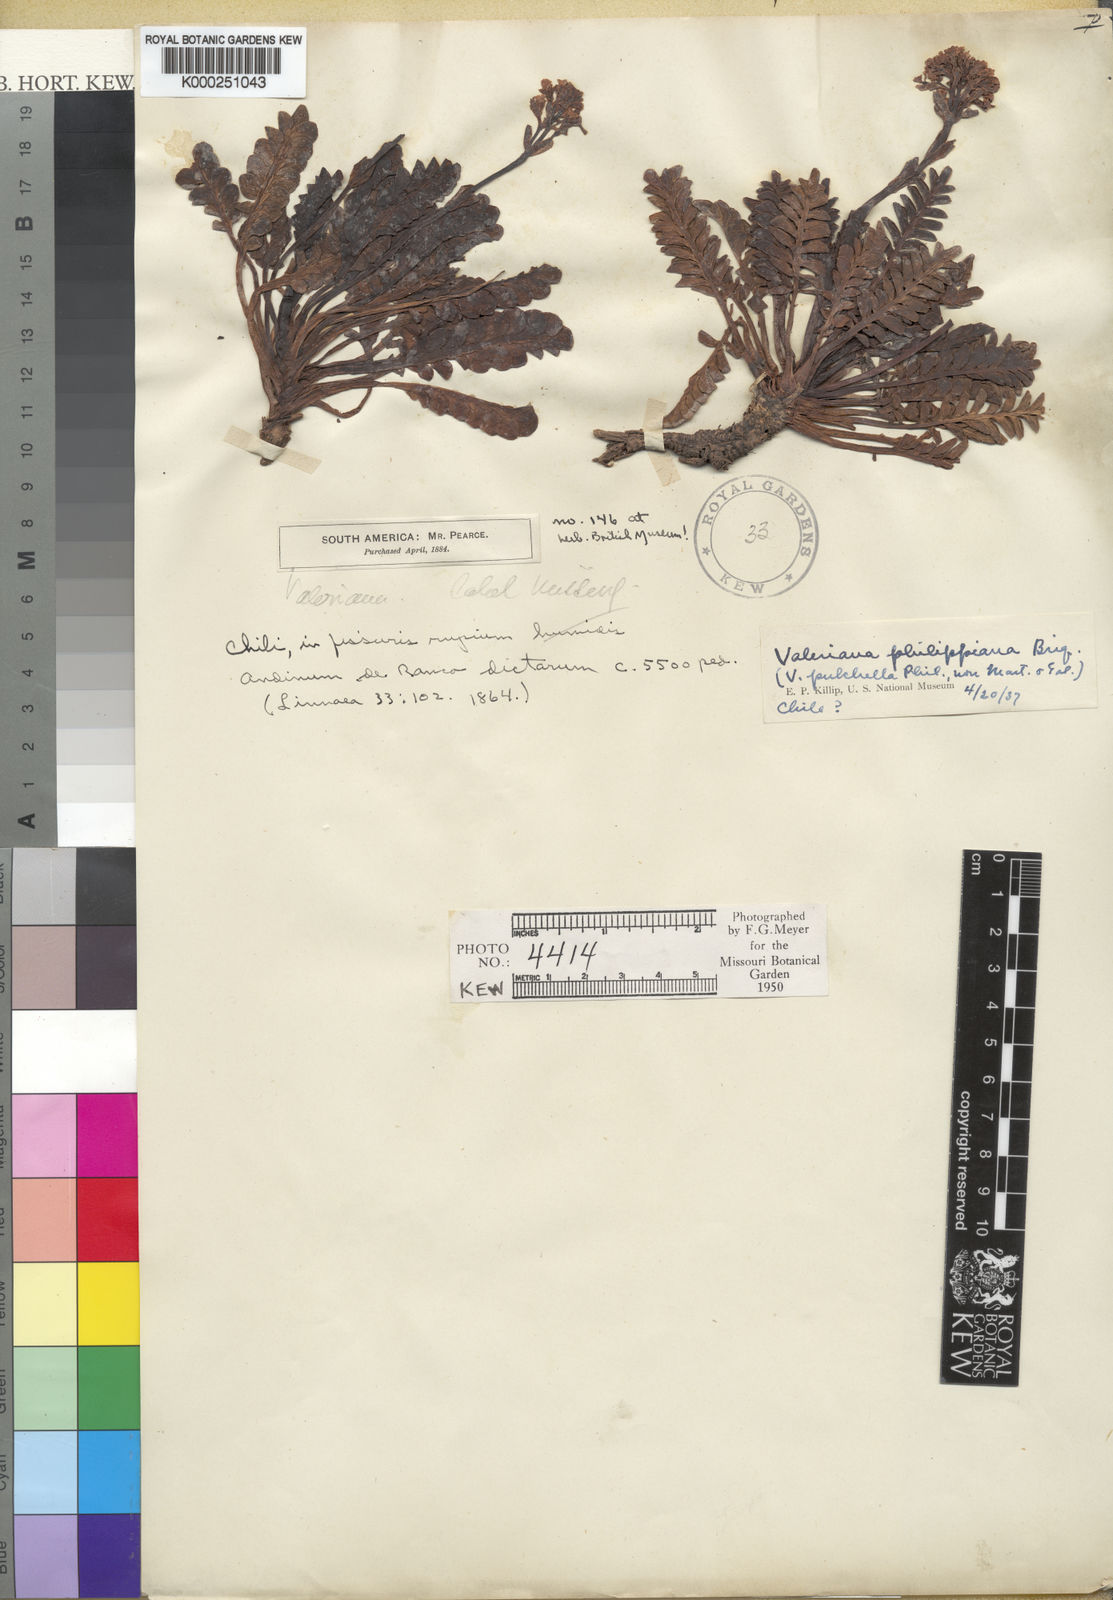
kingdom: Plantae
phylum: Tracheophyta
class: Magnoliopsida
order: Dipsacales
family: Caprifoliaceae
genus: Valeriana
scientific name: Valeriana philippiana
